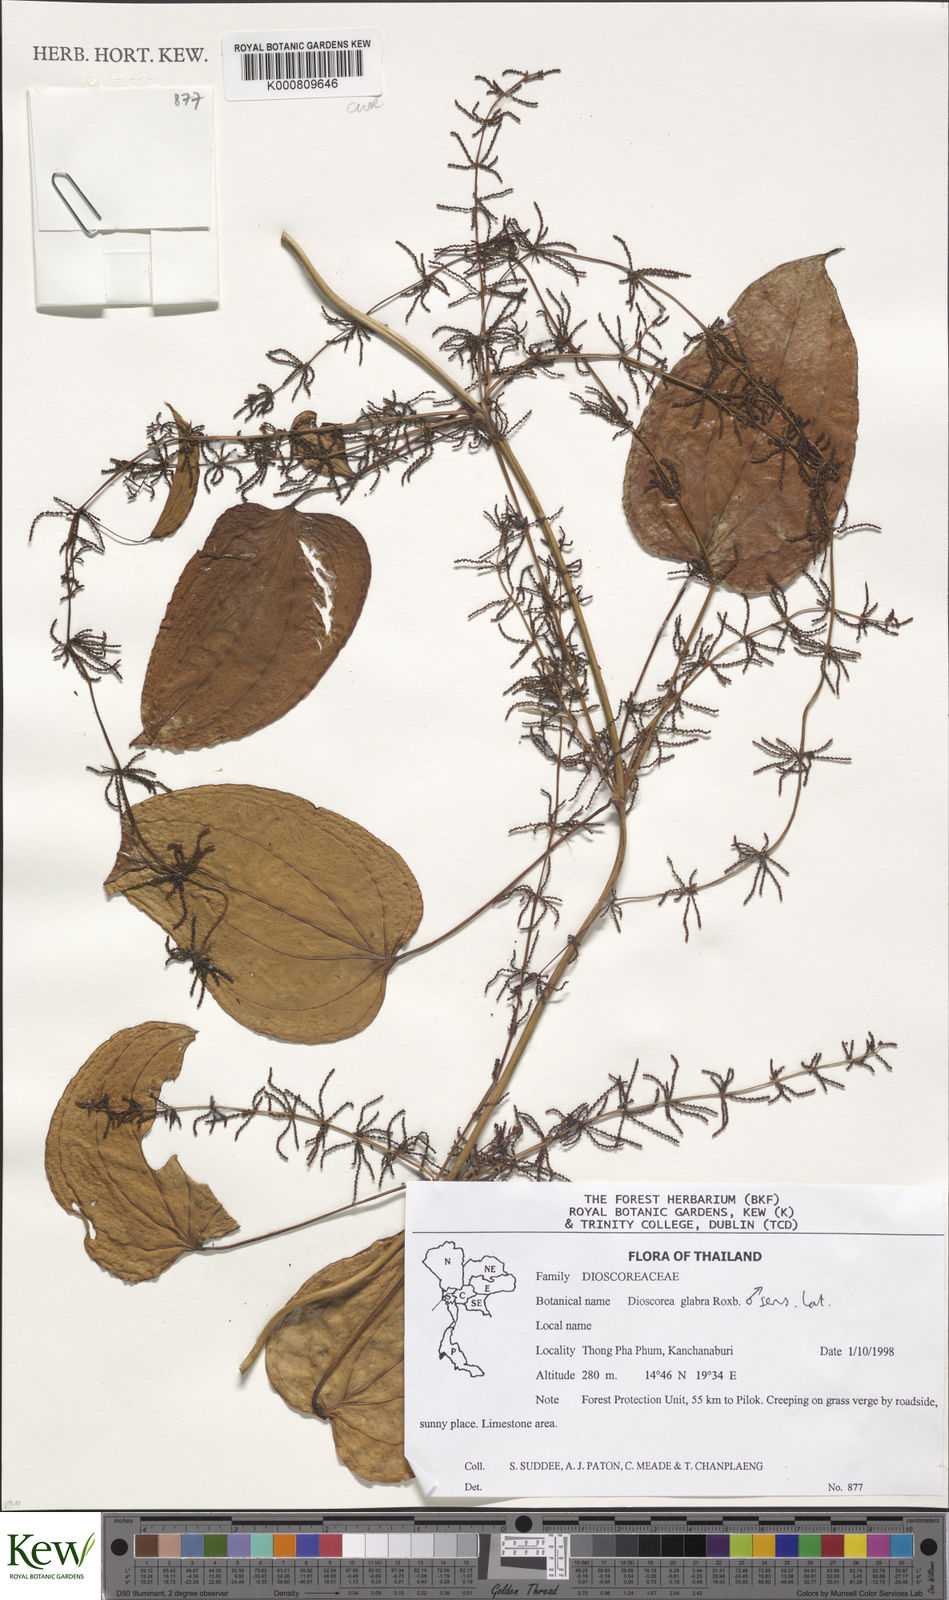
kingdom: Plantae
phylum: Tracheophyta
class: Liliopsida
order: Dioscoreales
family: Dioscoreaceae
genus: Dioscorea
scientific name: Dioscorea glabra
